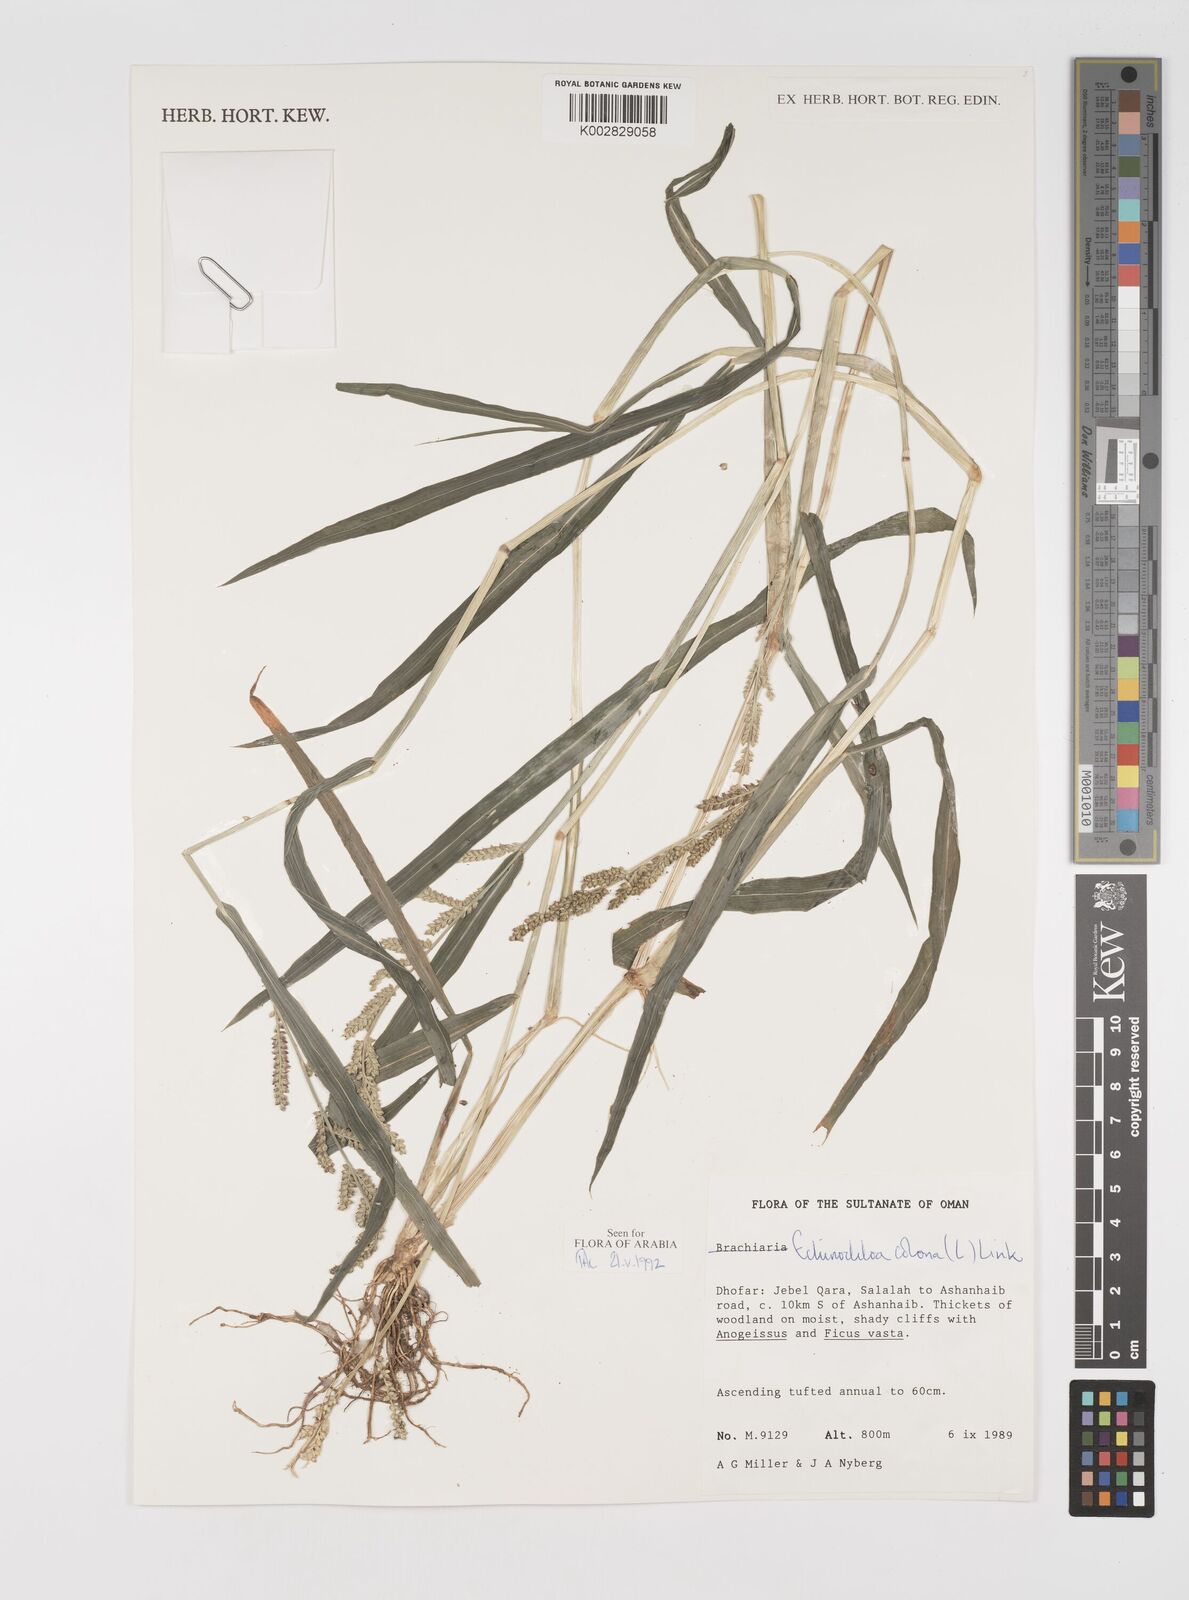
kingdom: Plantae
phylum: Tracheophyta
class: Liliopsida
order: Poales
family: Poaceae
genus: Echinochloa
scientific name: Echinochloa colonum
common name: Jungle rice
